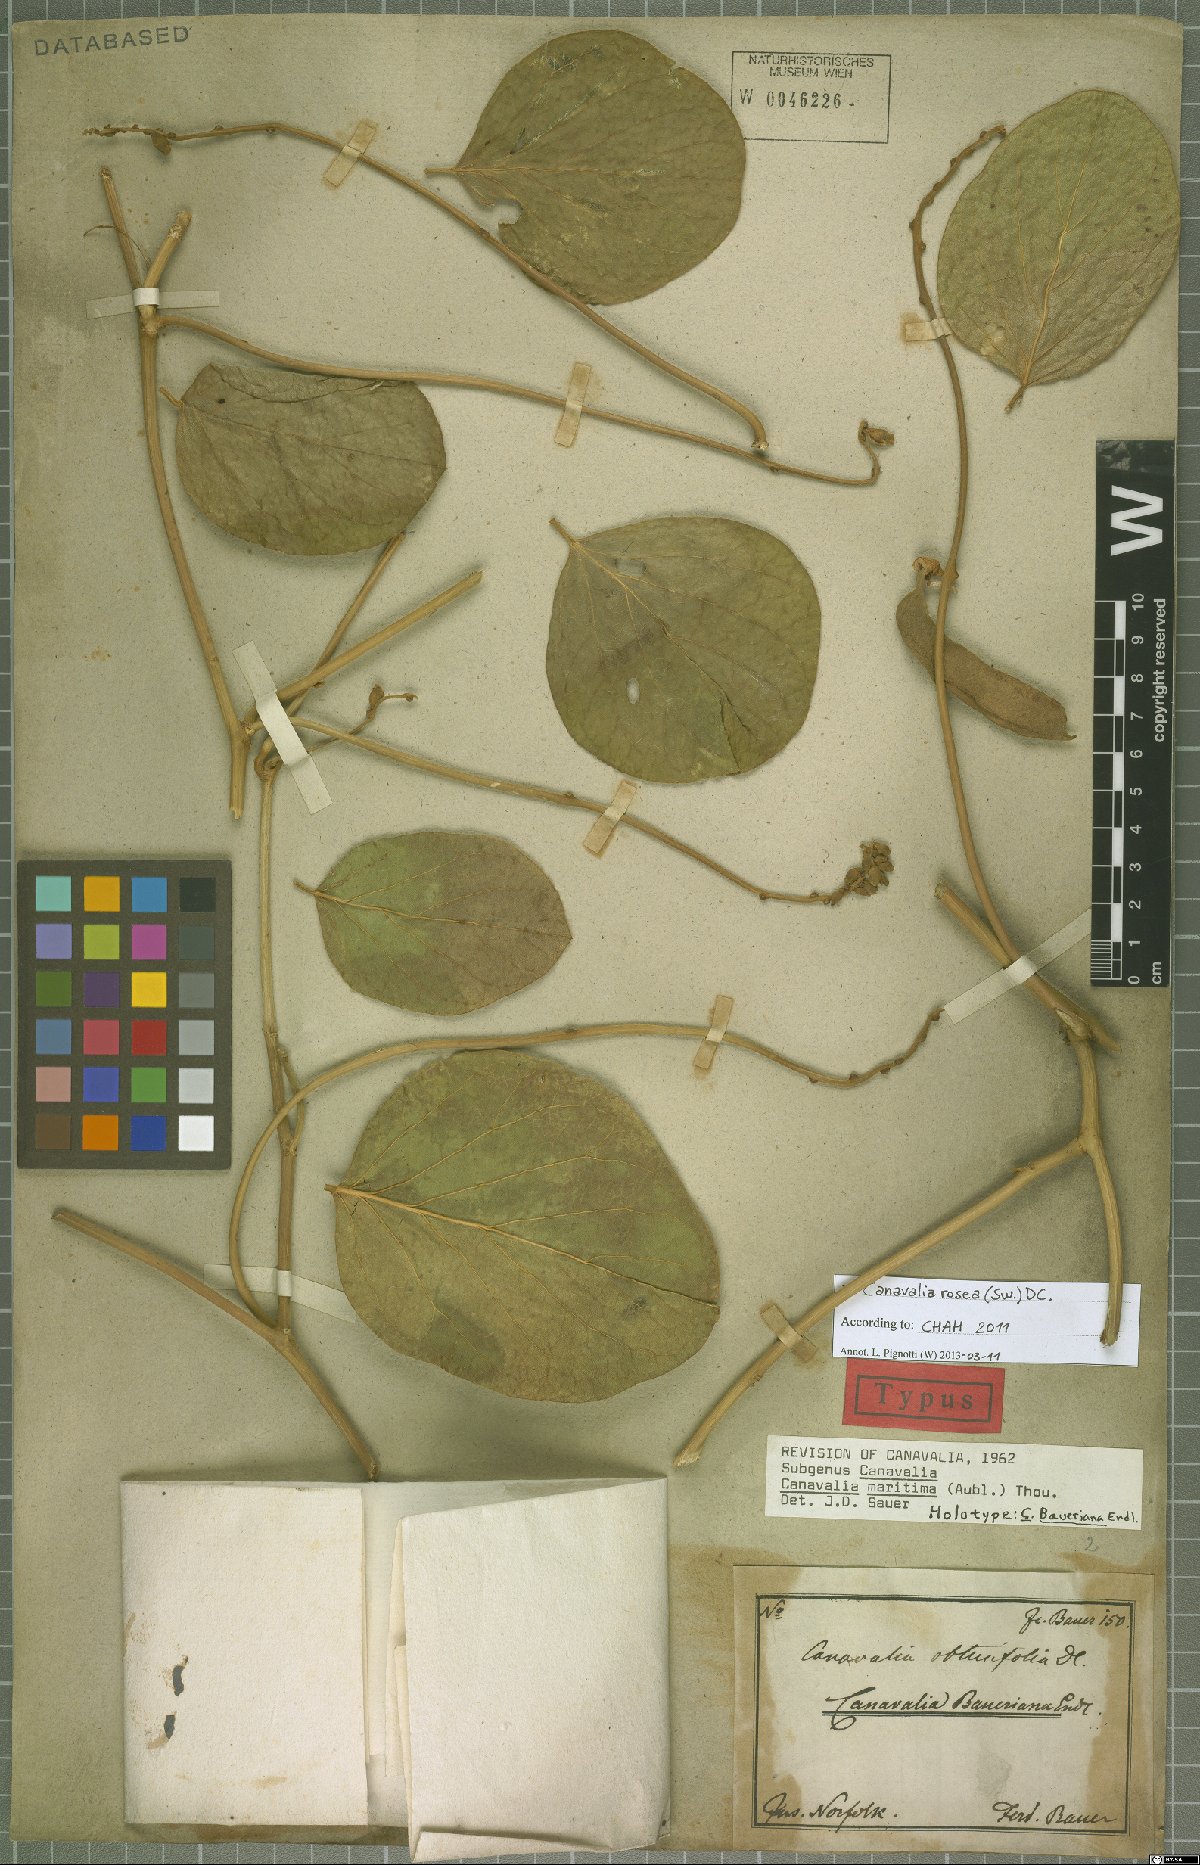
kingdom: Plantae
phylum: Tracheophyta
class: Magnoliopsida
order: Fabales
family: Fabaceae
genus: Canavalia
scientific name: Canavalia rosea
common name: Beach-bean
